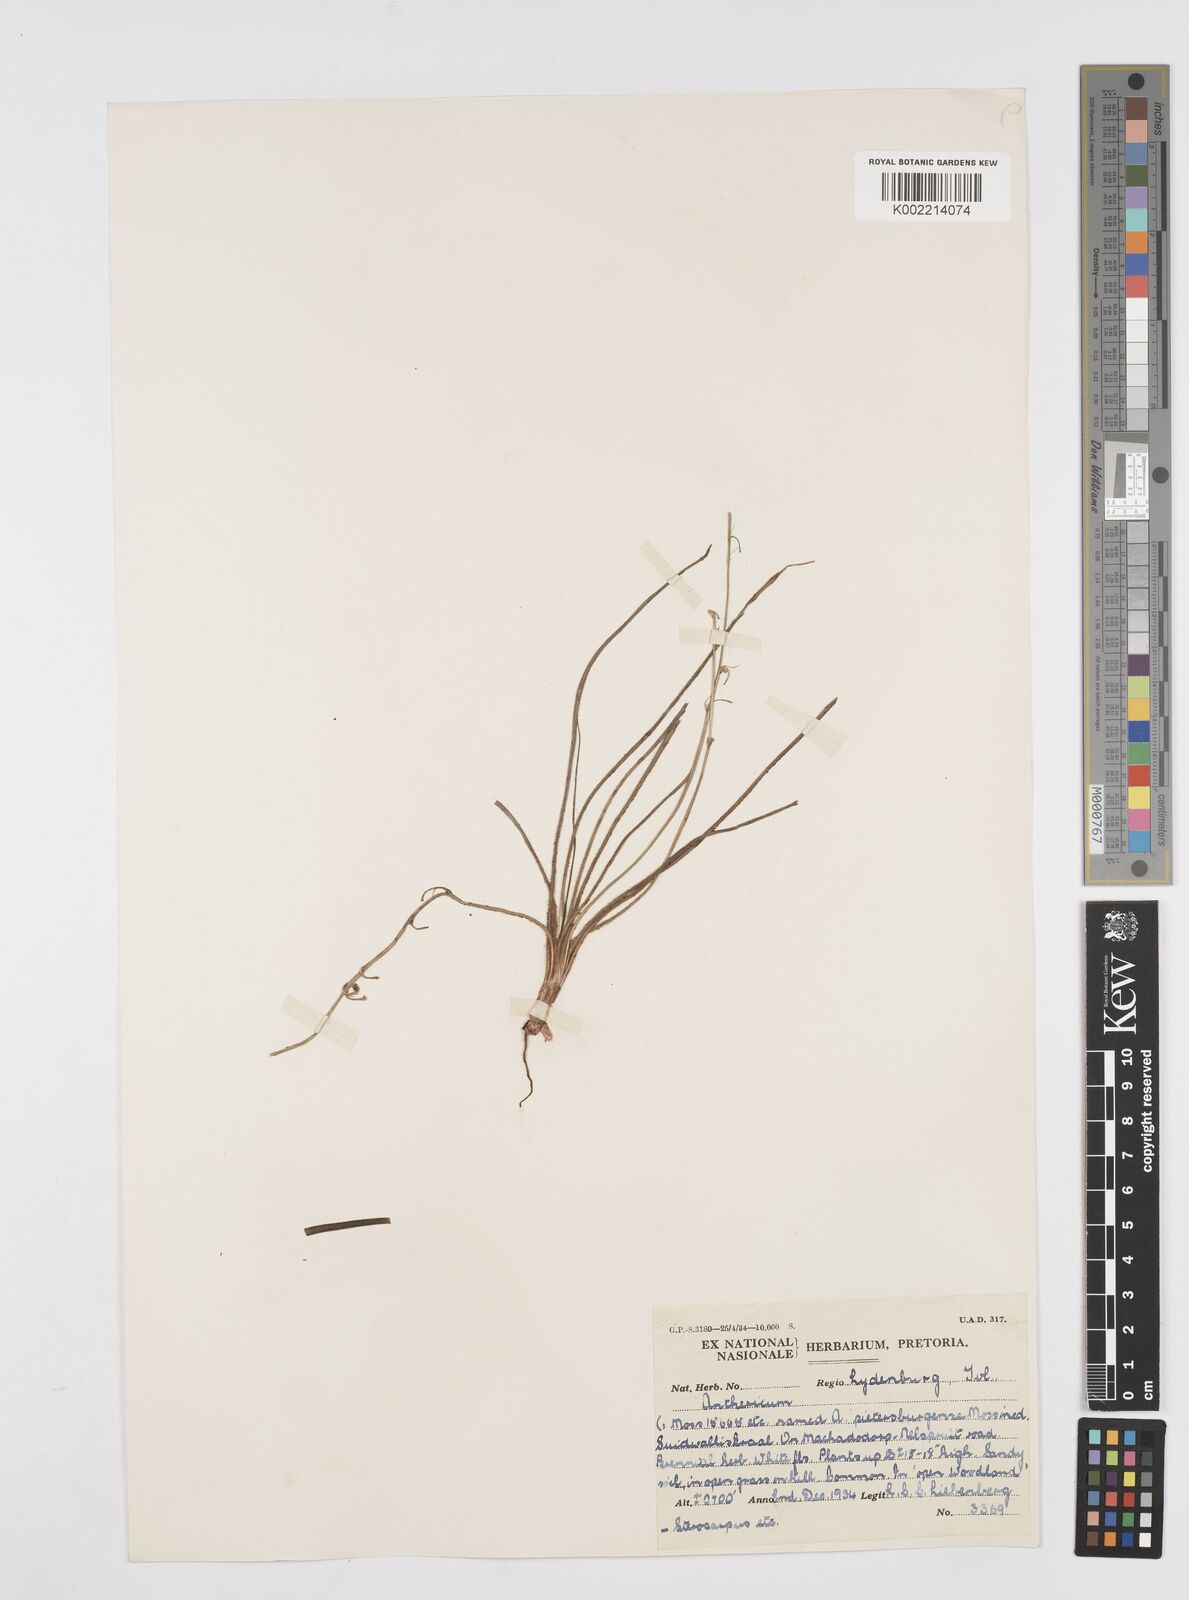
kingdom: Plantae
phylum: Tracheophyta
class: Liliopsida
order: Asparagales
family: Asphodelaceae
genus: Trachyandra
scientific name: Trachyandra
